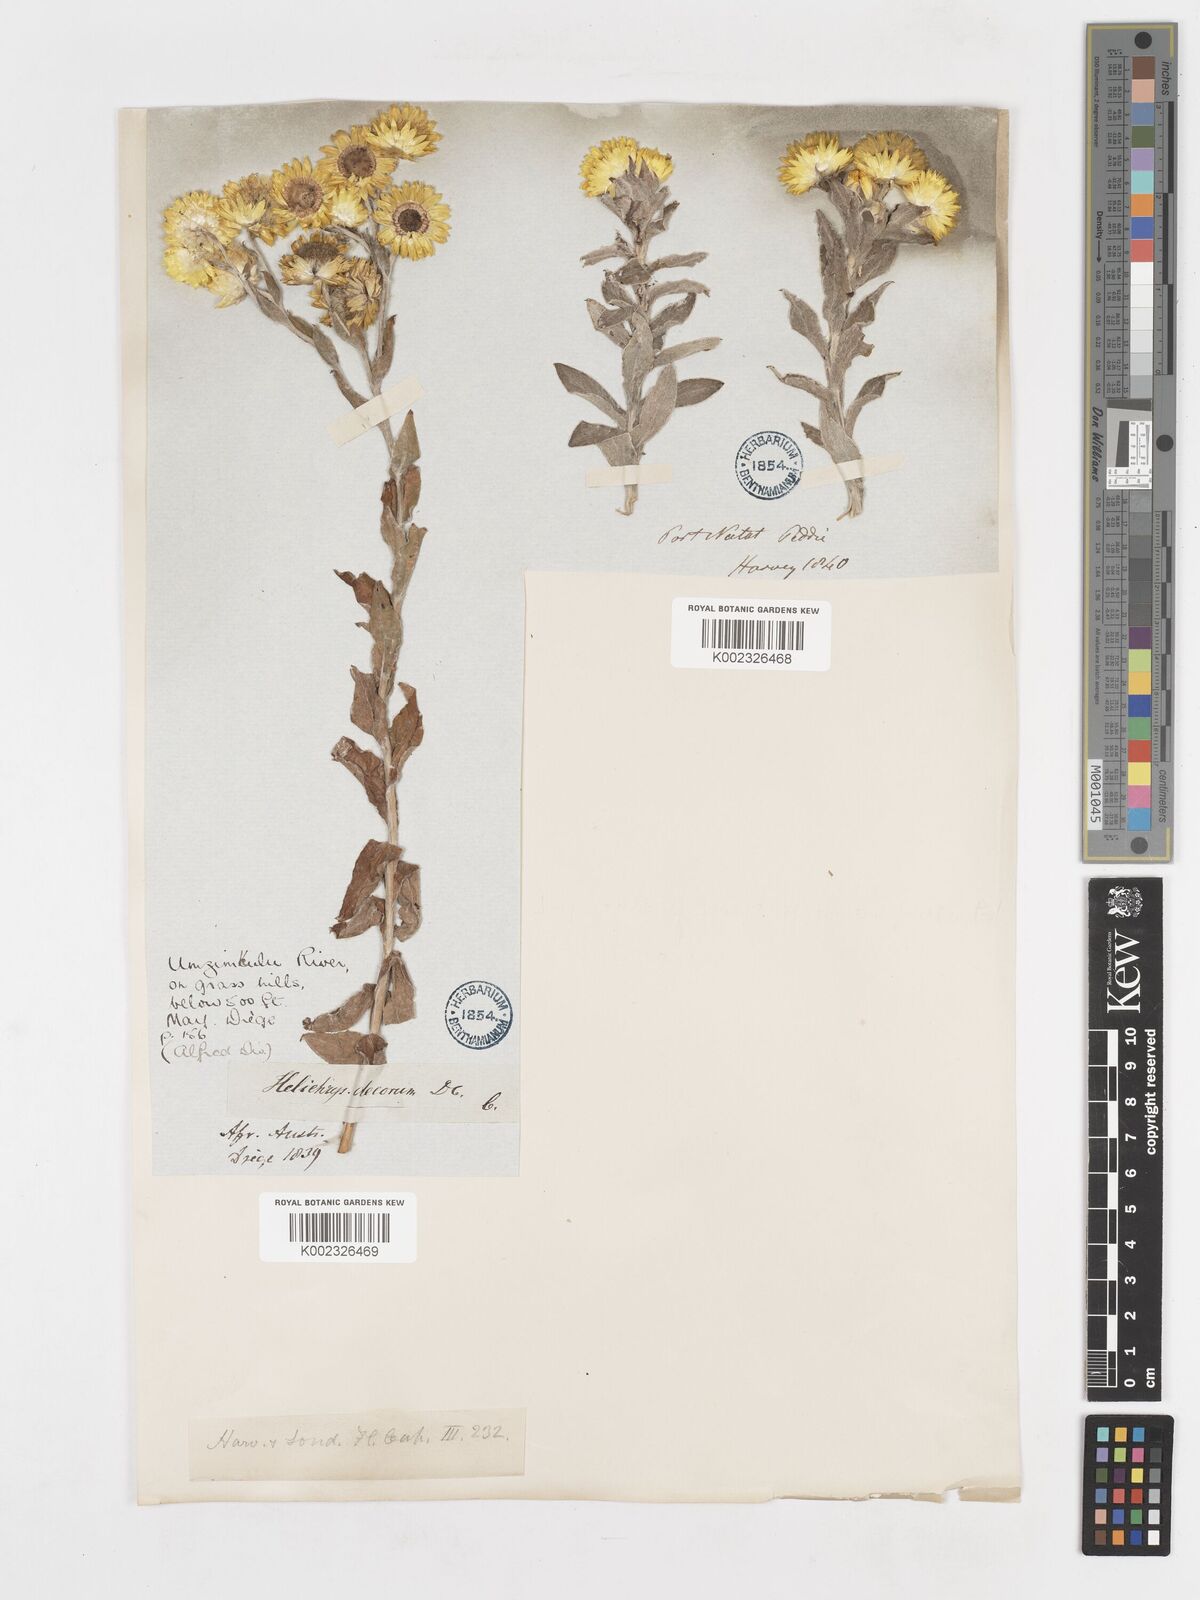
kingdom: Plantae
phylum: Tracheophyta
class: Magnoliopsida
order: Asterales
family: Asteraceae
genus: Helichrysum
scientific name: Helichrysum decorum
